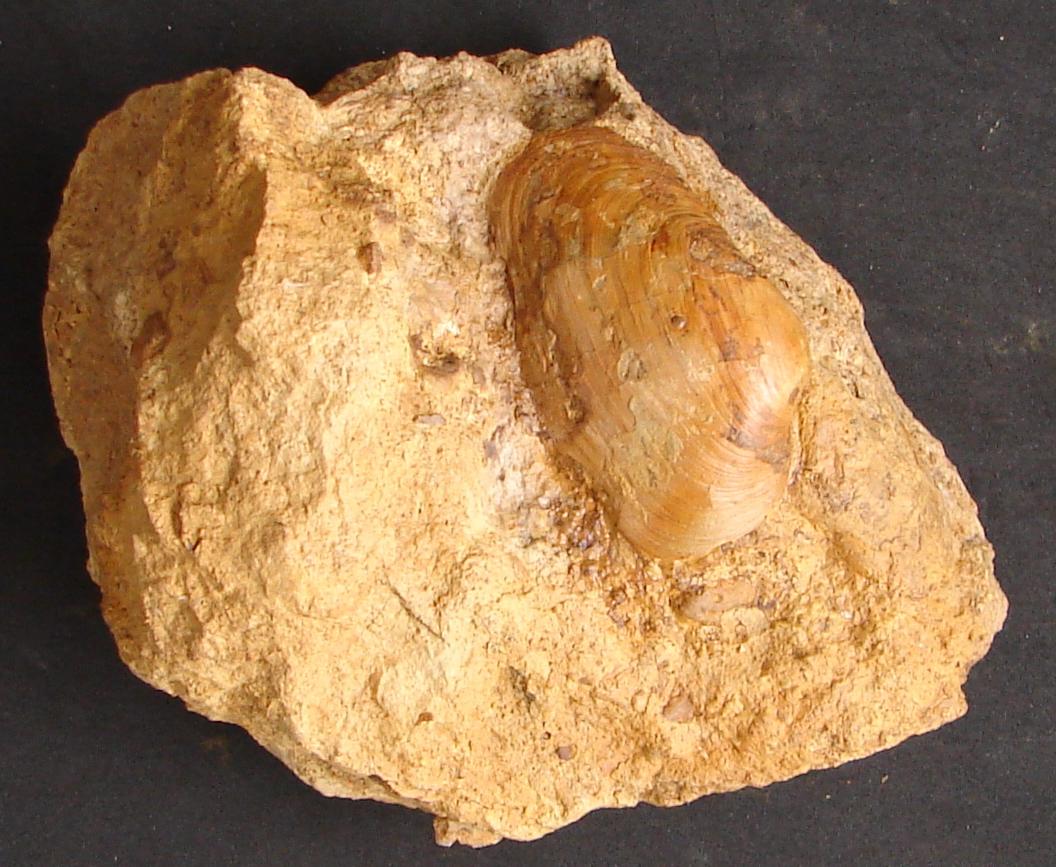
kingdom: Animalia
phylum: Mollusca
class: Bivalvia
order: Myida
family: Pleuromyidae
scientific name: Pleuromyidae
